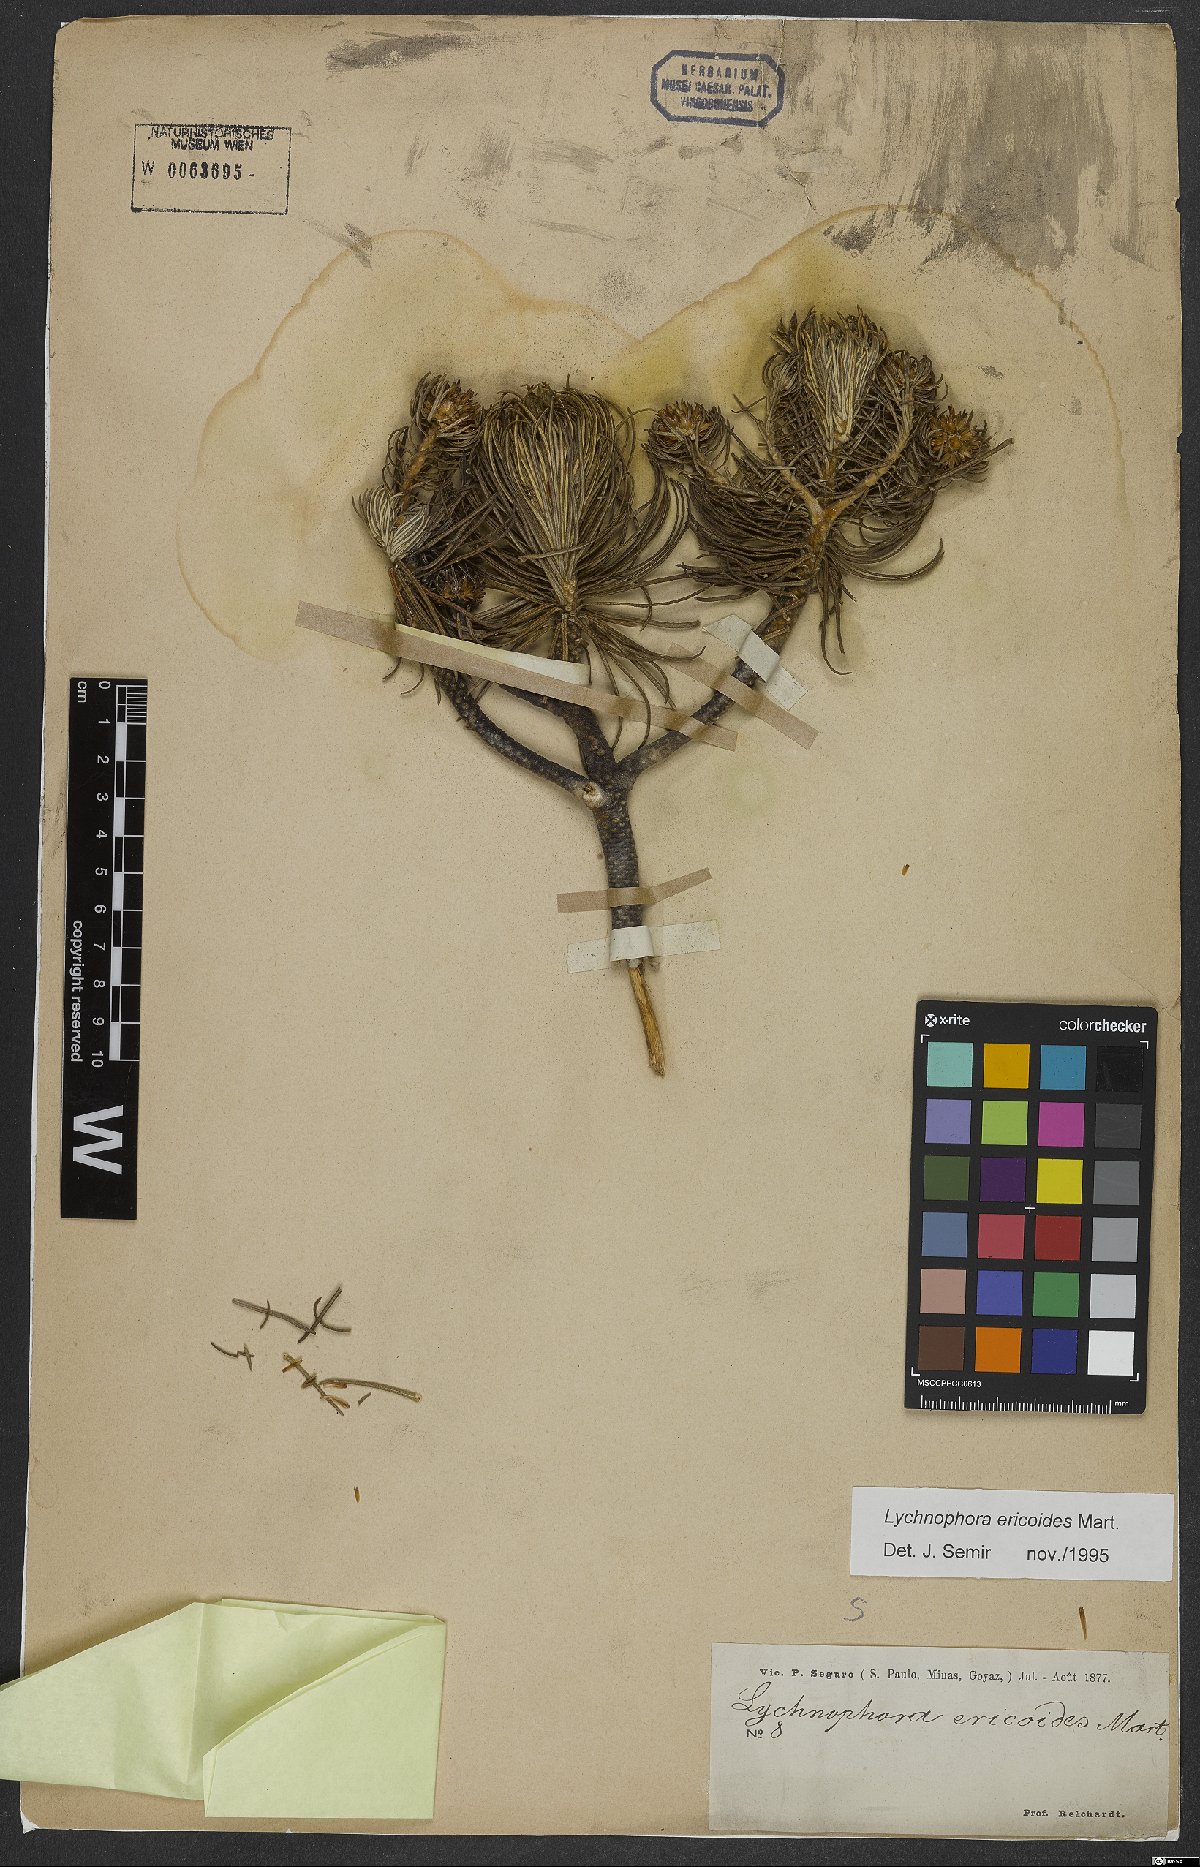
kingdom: Plantae
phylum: Tracheophyta
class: Magnoliopsida
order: Asterales
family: Asteraceae
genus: Lychnophora
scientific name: Lychnophora ericoides
